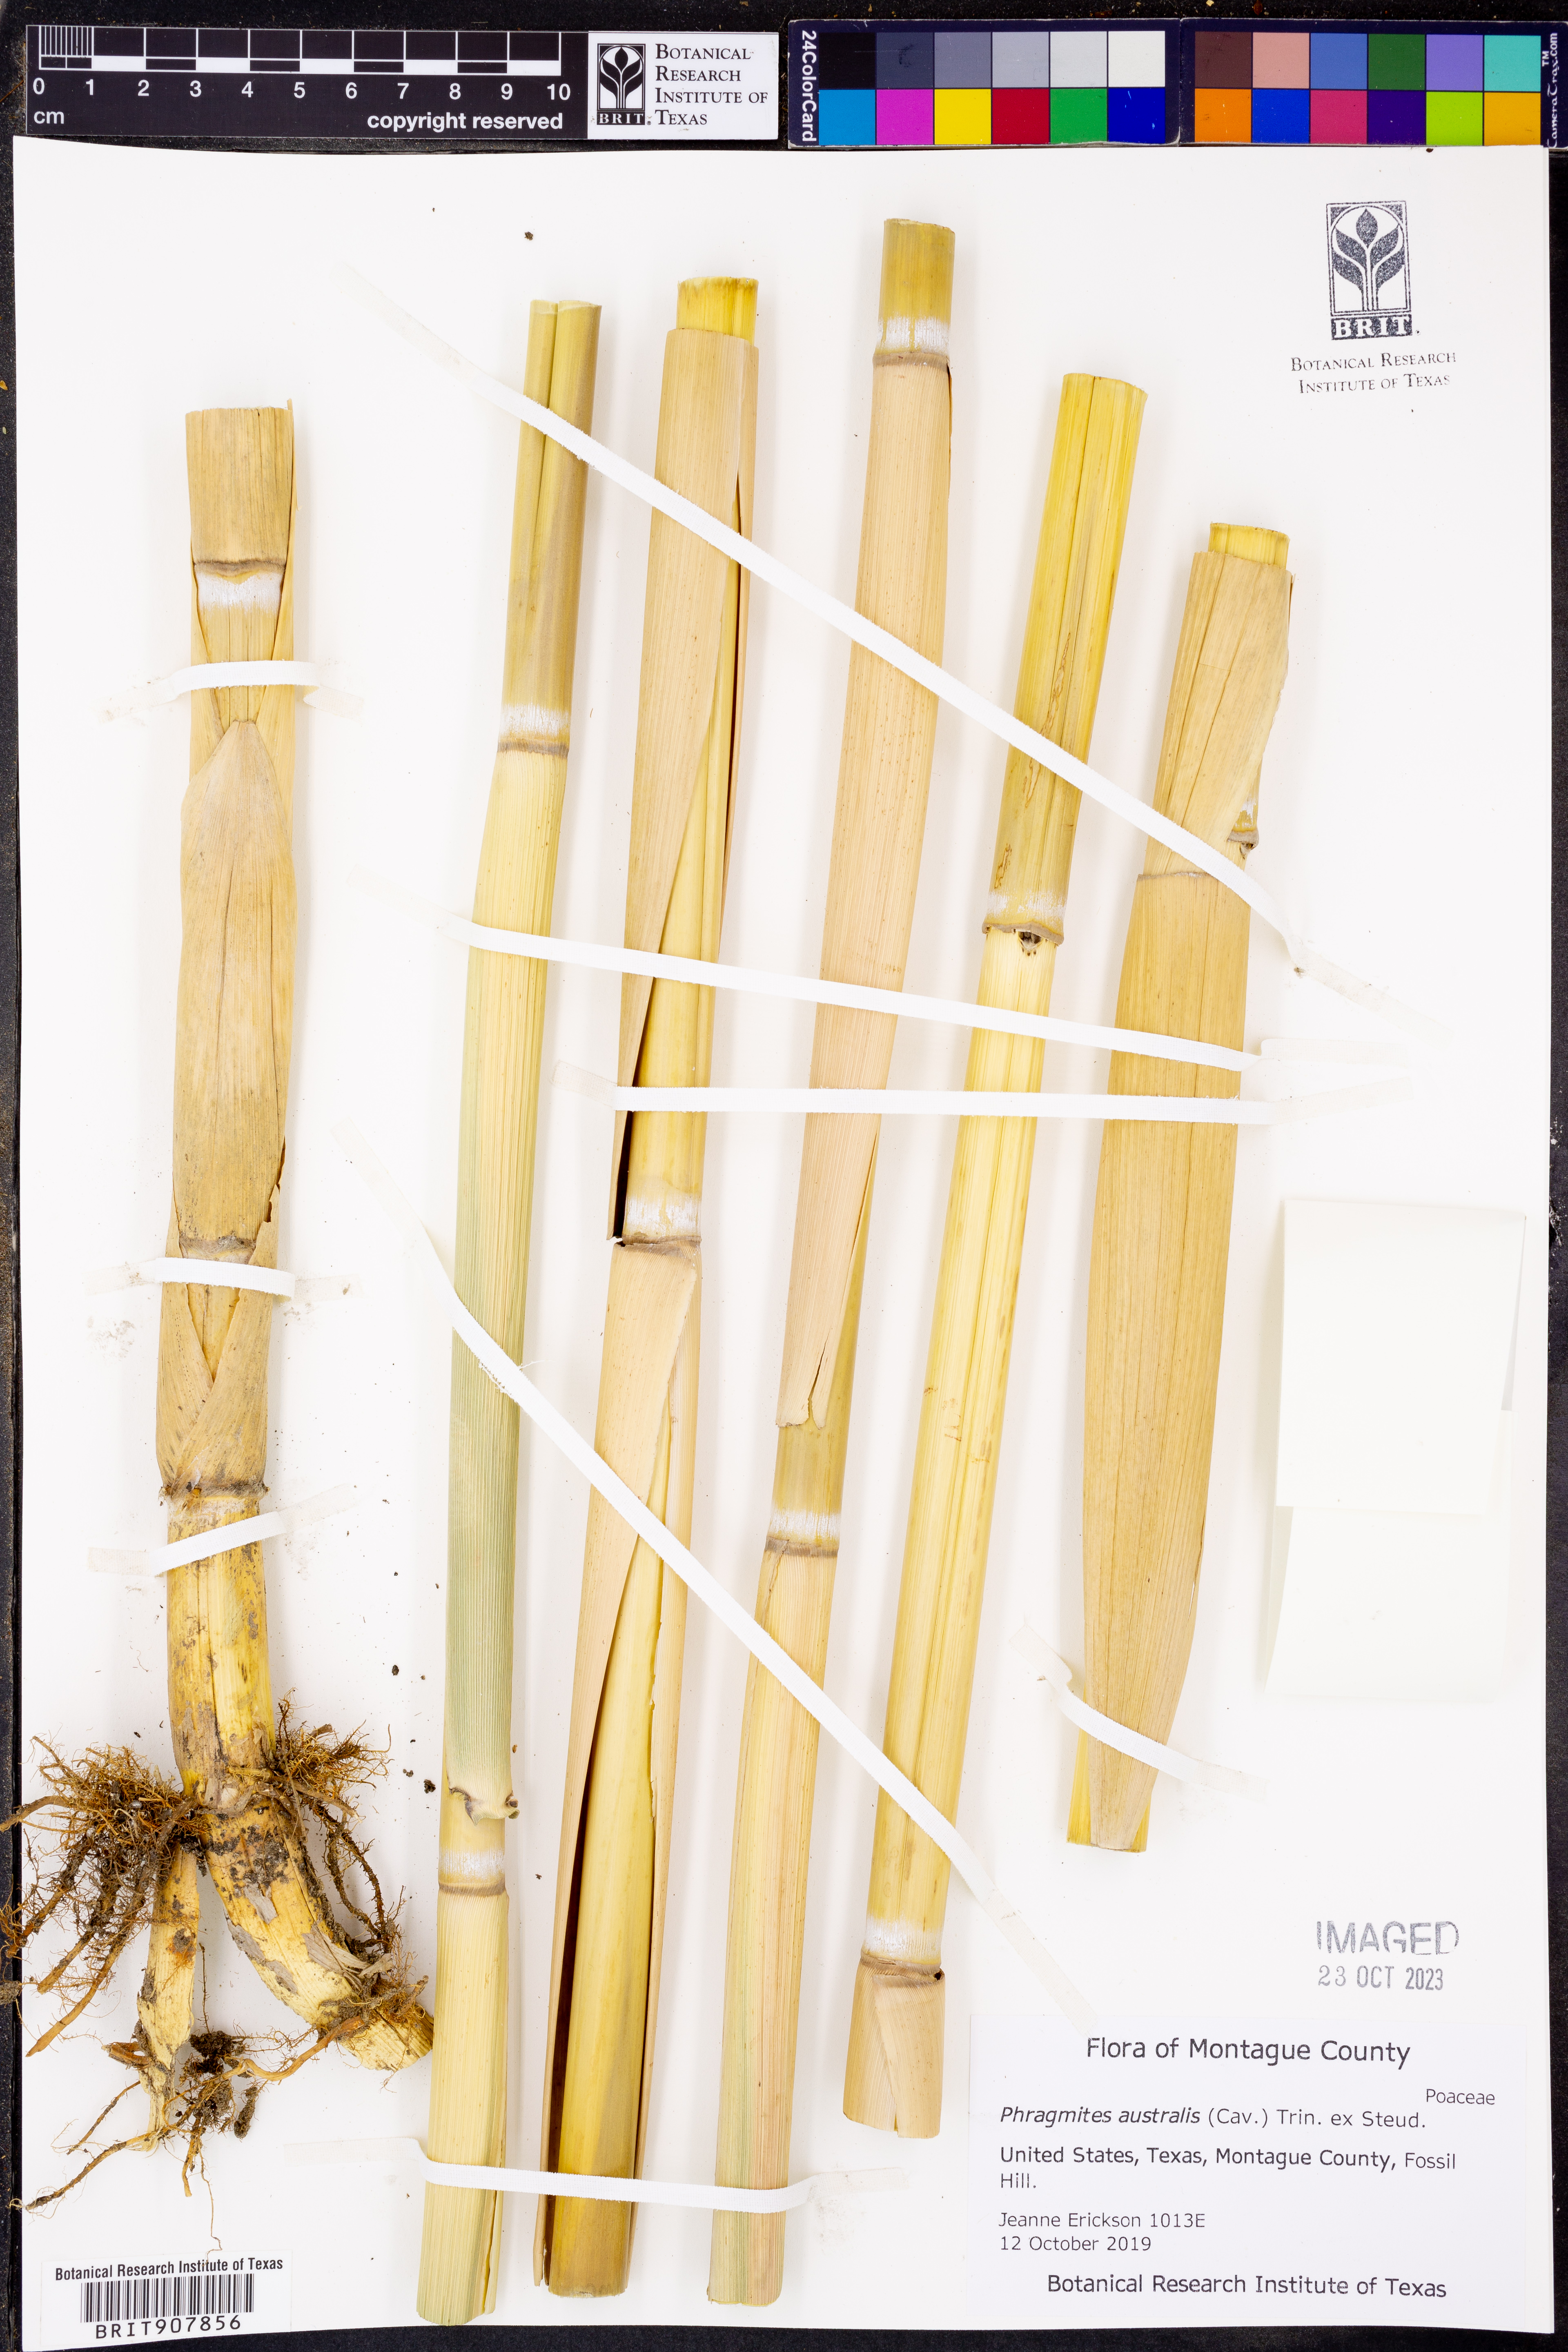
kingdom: Plantae
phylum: Tracheophyta
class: Liliopsida
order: Poales
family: Poaceae
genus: Phragmites
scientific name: Phragmites australis
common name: Common reed
